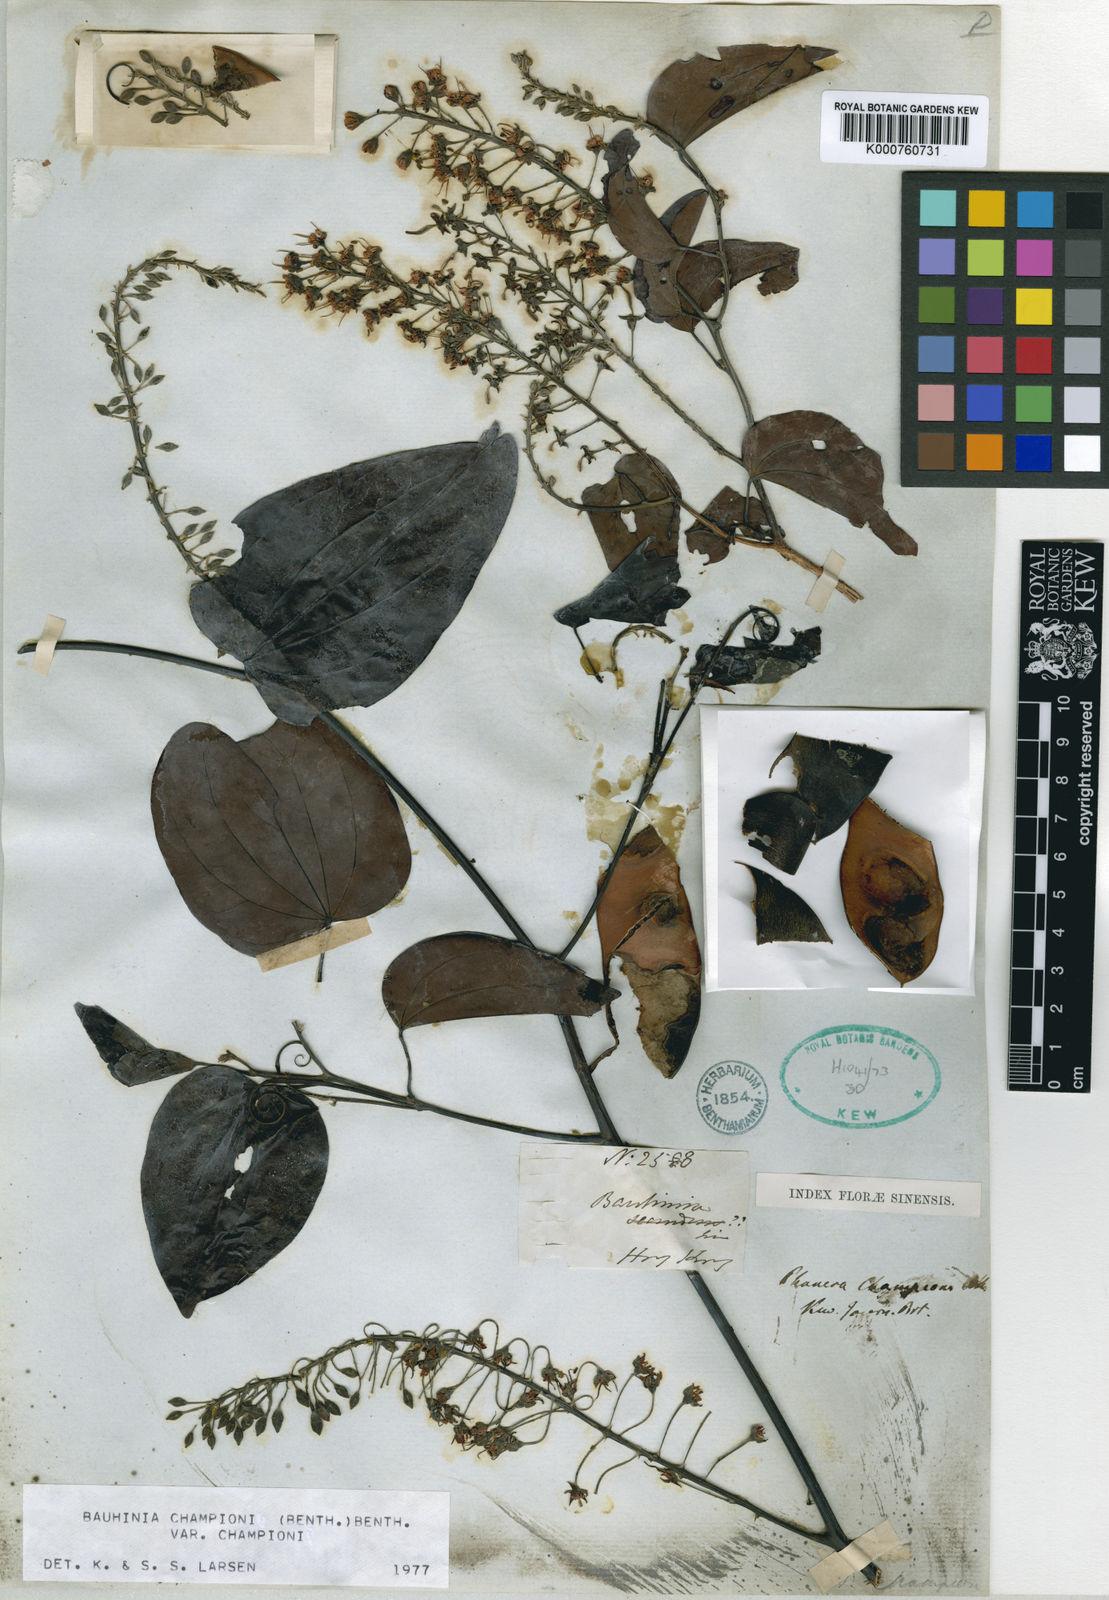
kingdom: Plantae
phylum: Tracheophyta
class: Magnoliopsida
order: Fabales
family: Fabaceae
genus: Phanera
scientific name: Phanera championii
